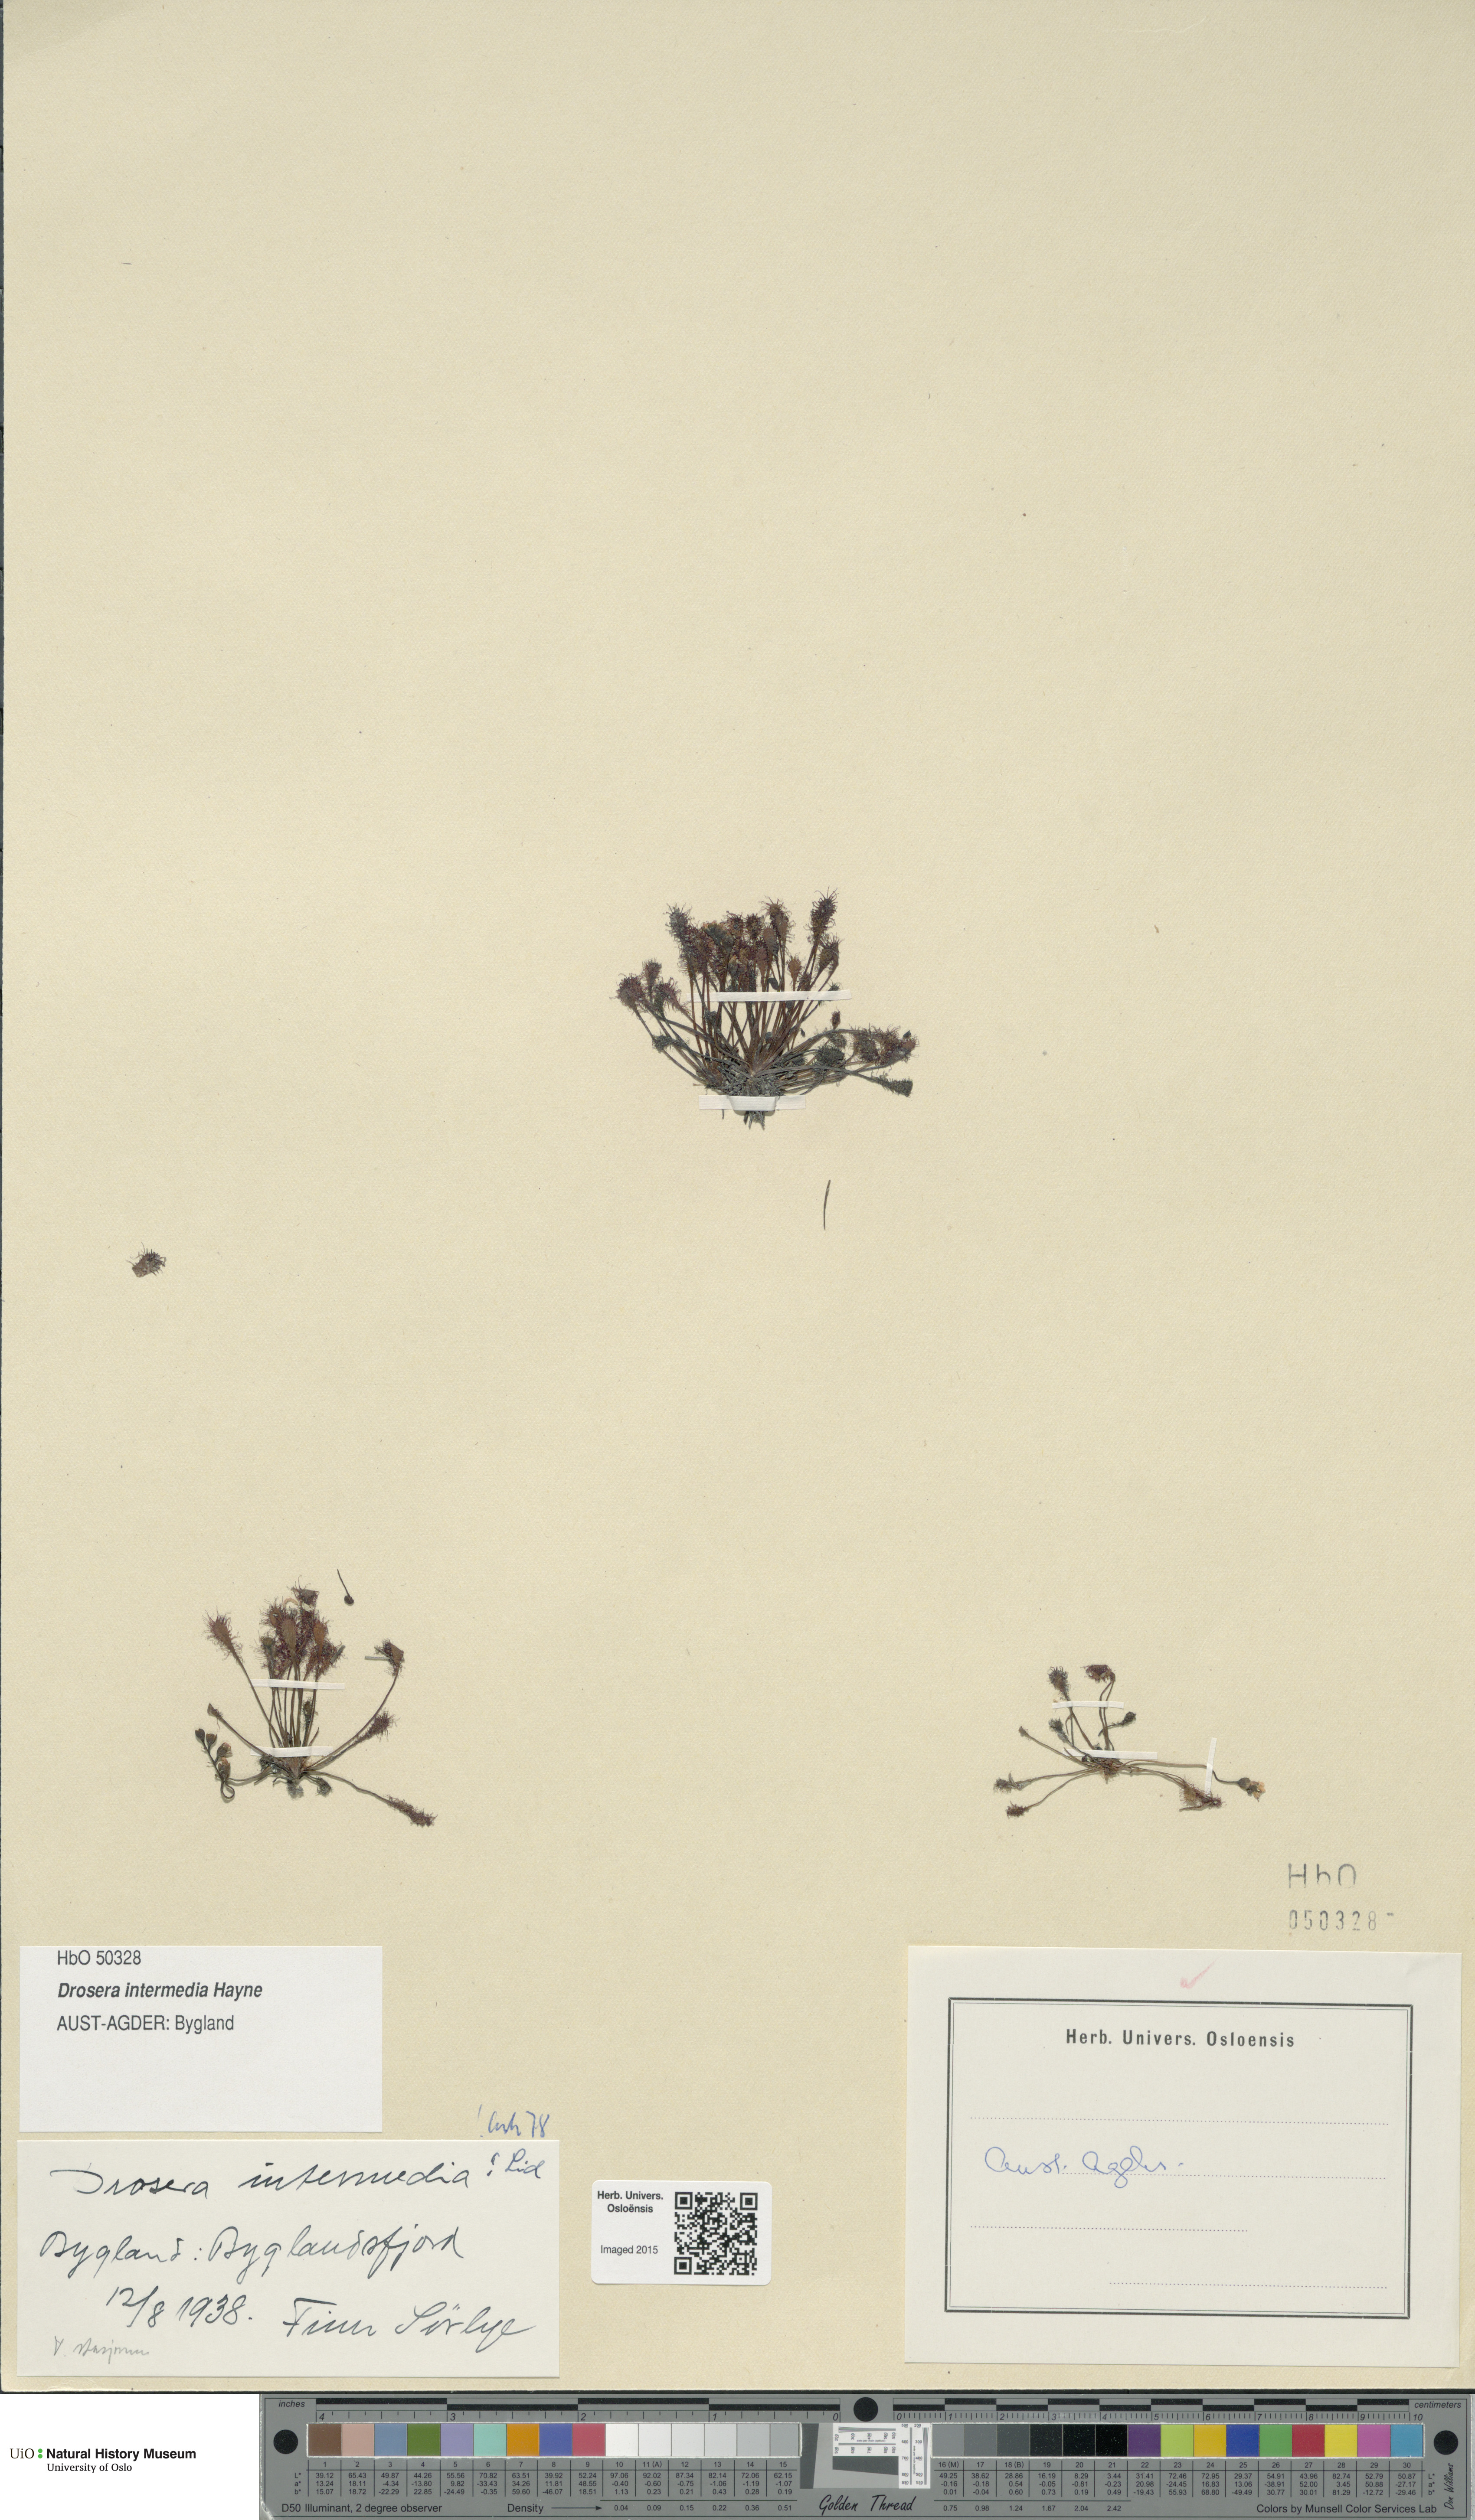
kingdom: Plantae
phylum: Tracheophyta
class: Magnoliopsida
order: Caryophyllales
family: Droseraceae
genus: Drosera
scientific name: Drosera intermedia
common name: Oblong-leaved sundew
